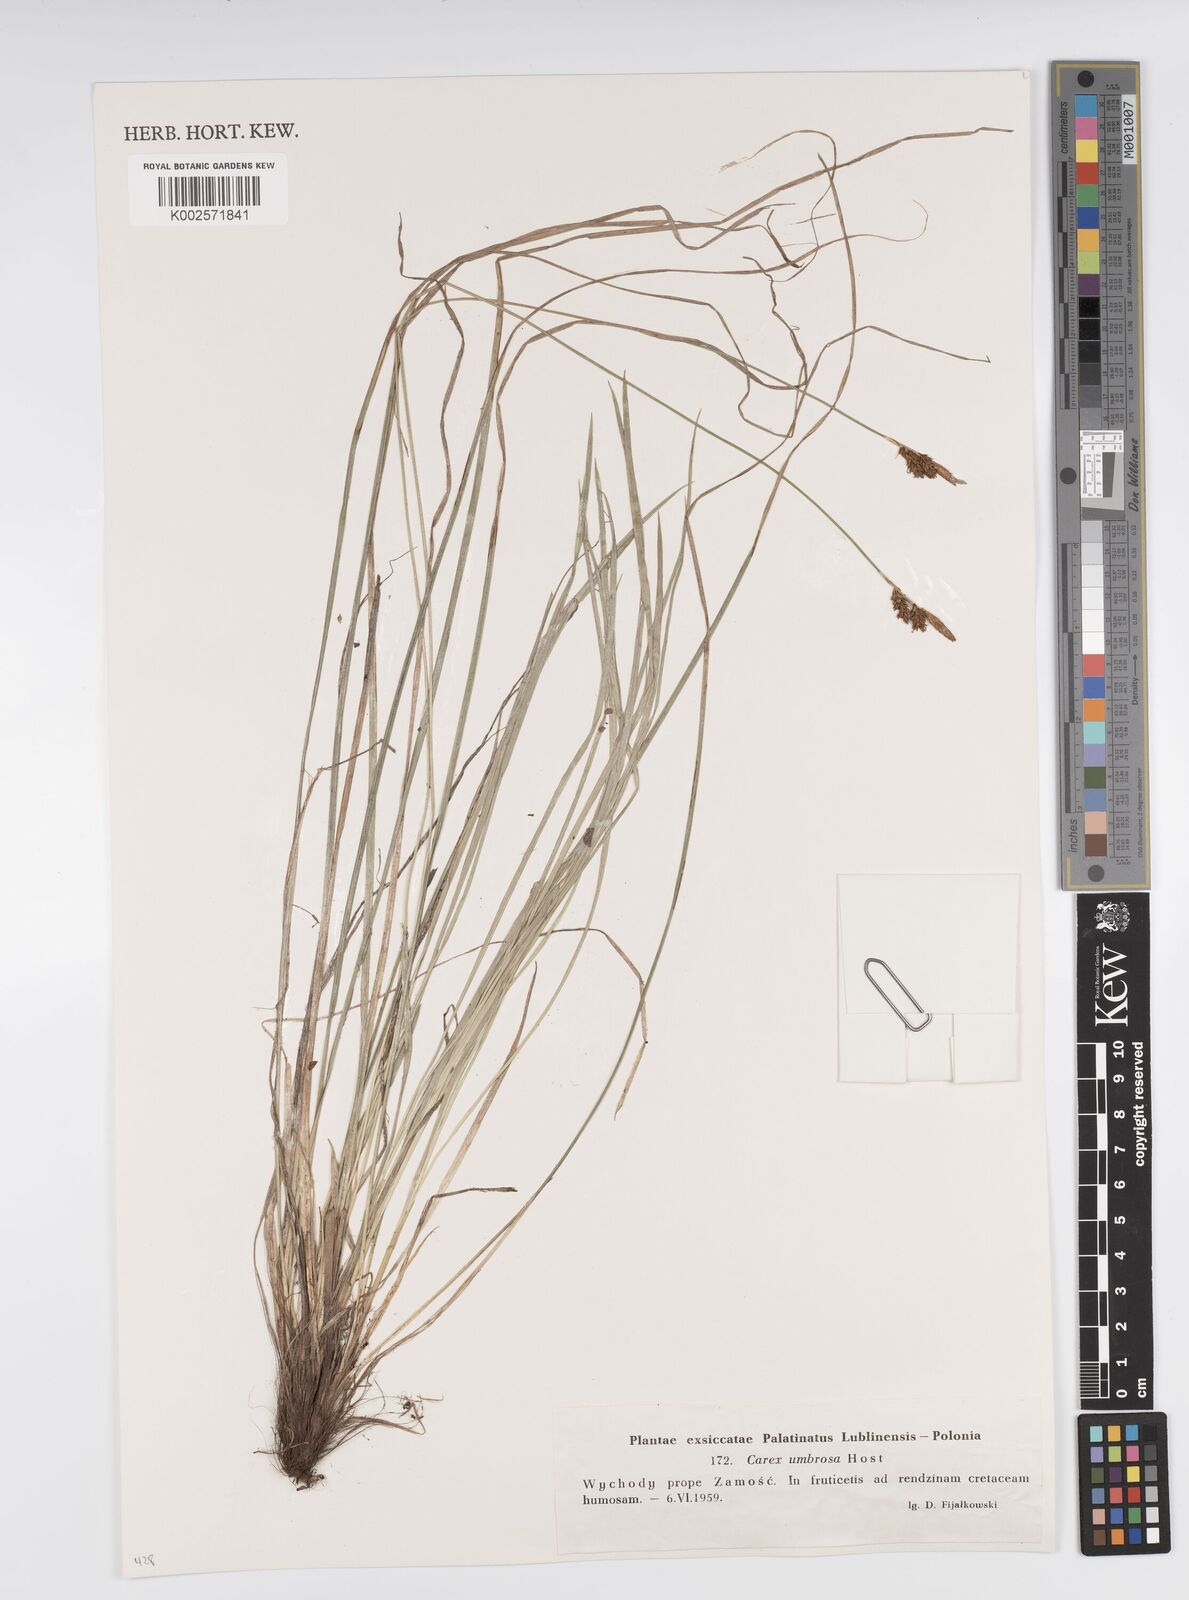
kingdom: Plantae
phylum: Tracheophyta
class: Liliopsida
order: Poales
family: Cyperaceae
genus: Carex
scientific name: Carex umbrosa
